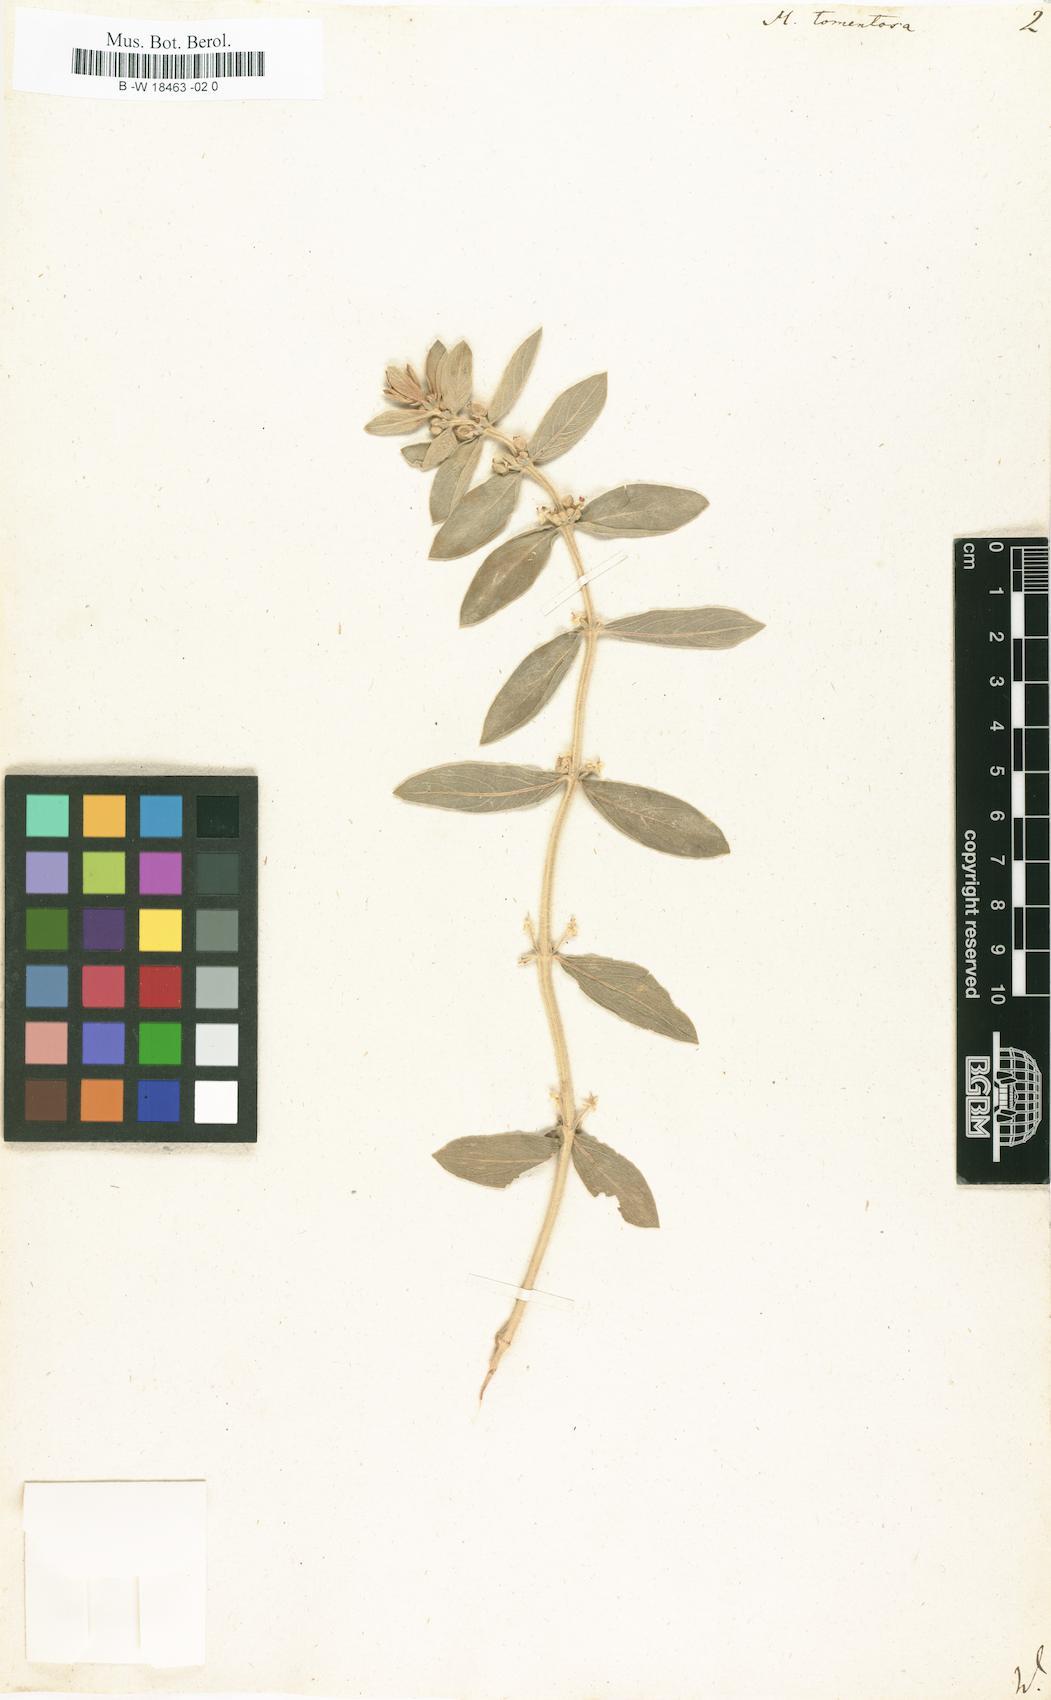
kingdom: Plantae
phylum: Tracheophyta
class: Magnoliopsida
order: Malpighiales
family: Euphorbiaceae
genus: Mercurialis
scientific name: Mercurialis tomentosa
